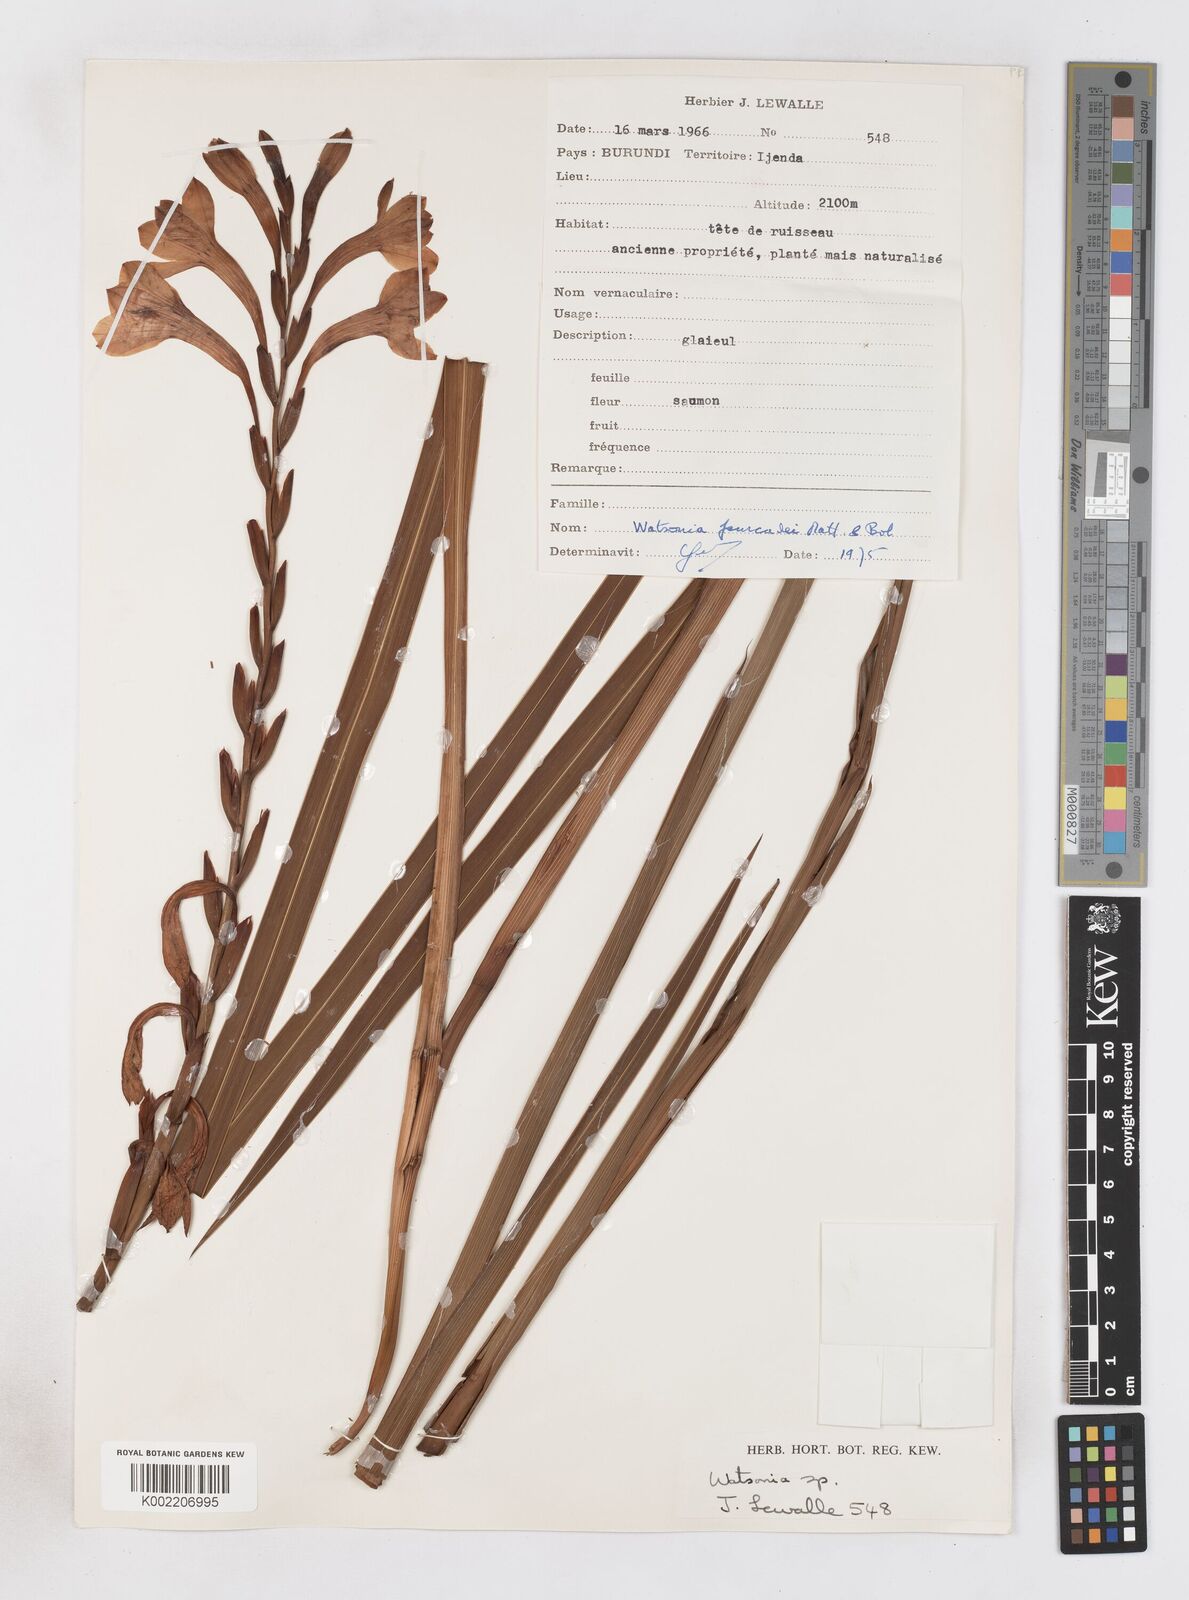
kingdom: Plantae
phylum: Tracheophyta
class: Liliopsida
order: Asparagales
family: Iridaceae
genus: Watsonia
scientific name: Watsonia fourcadei
